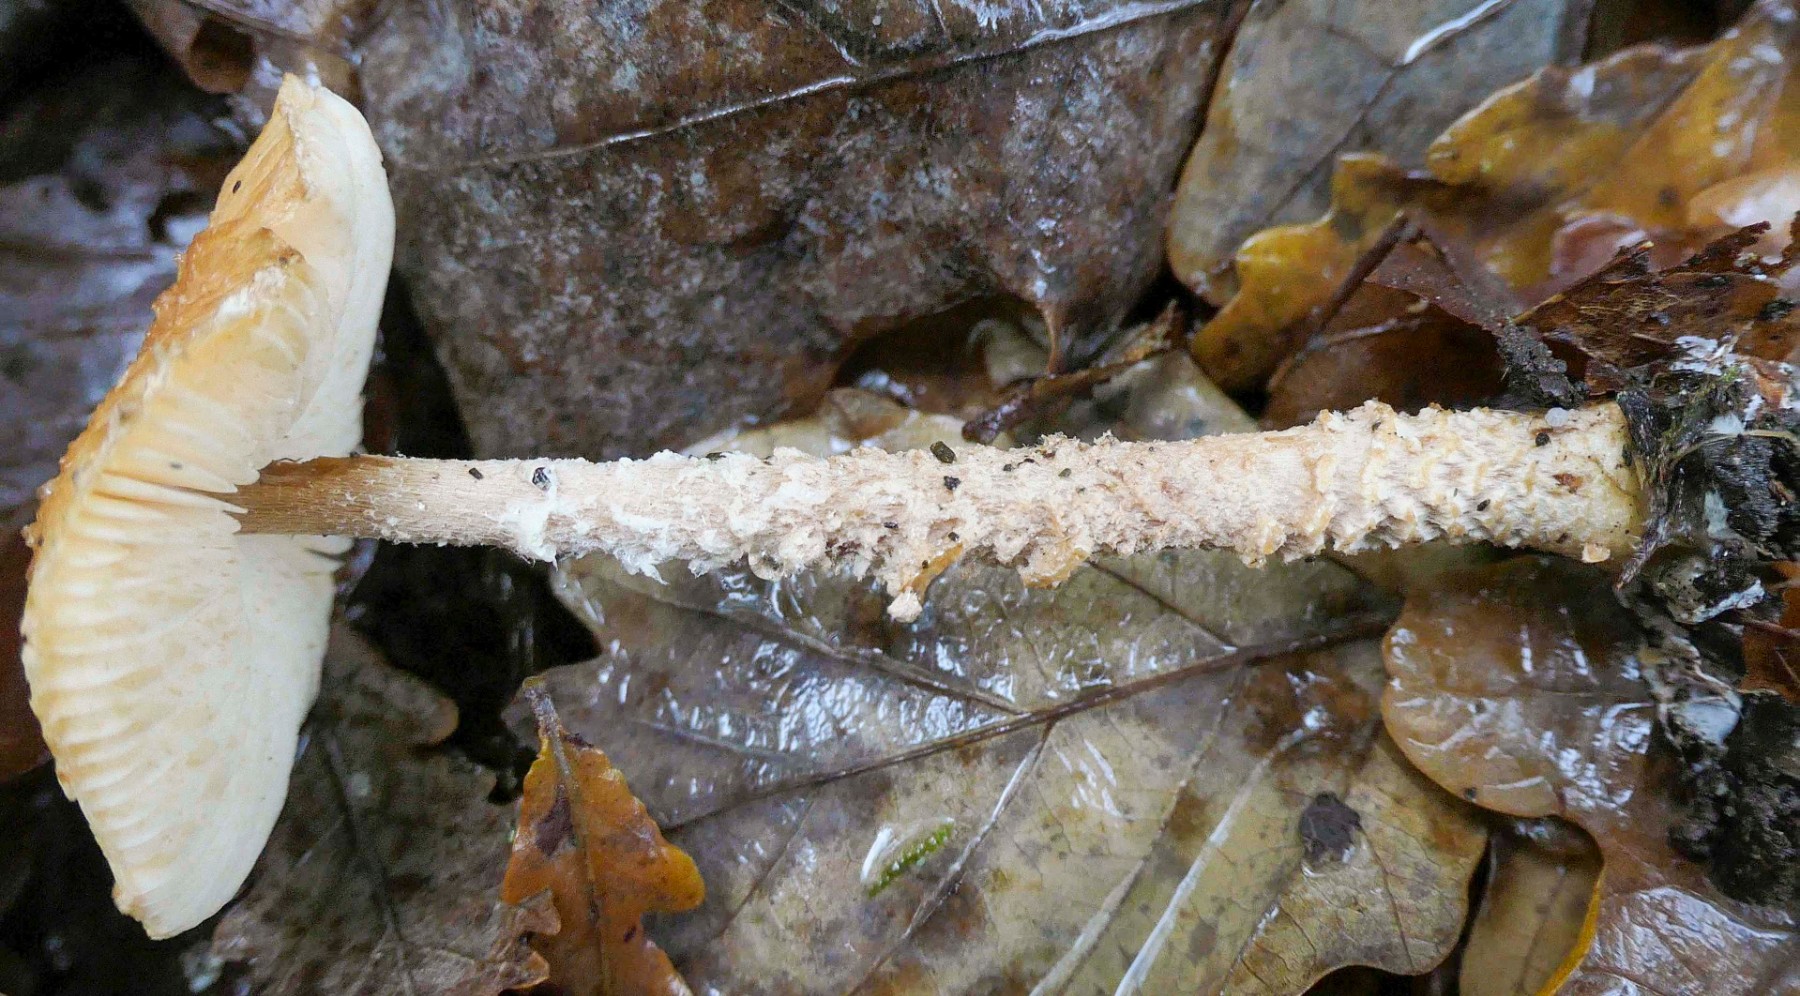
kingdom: Fungi
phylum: Basidiomycota
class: Agaricomycetes
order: Agaricales
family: Agaricaceae
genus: Lepiota
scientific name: Lepiota magnispora
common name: gulfnugget parasolhat
